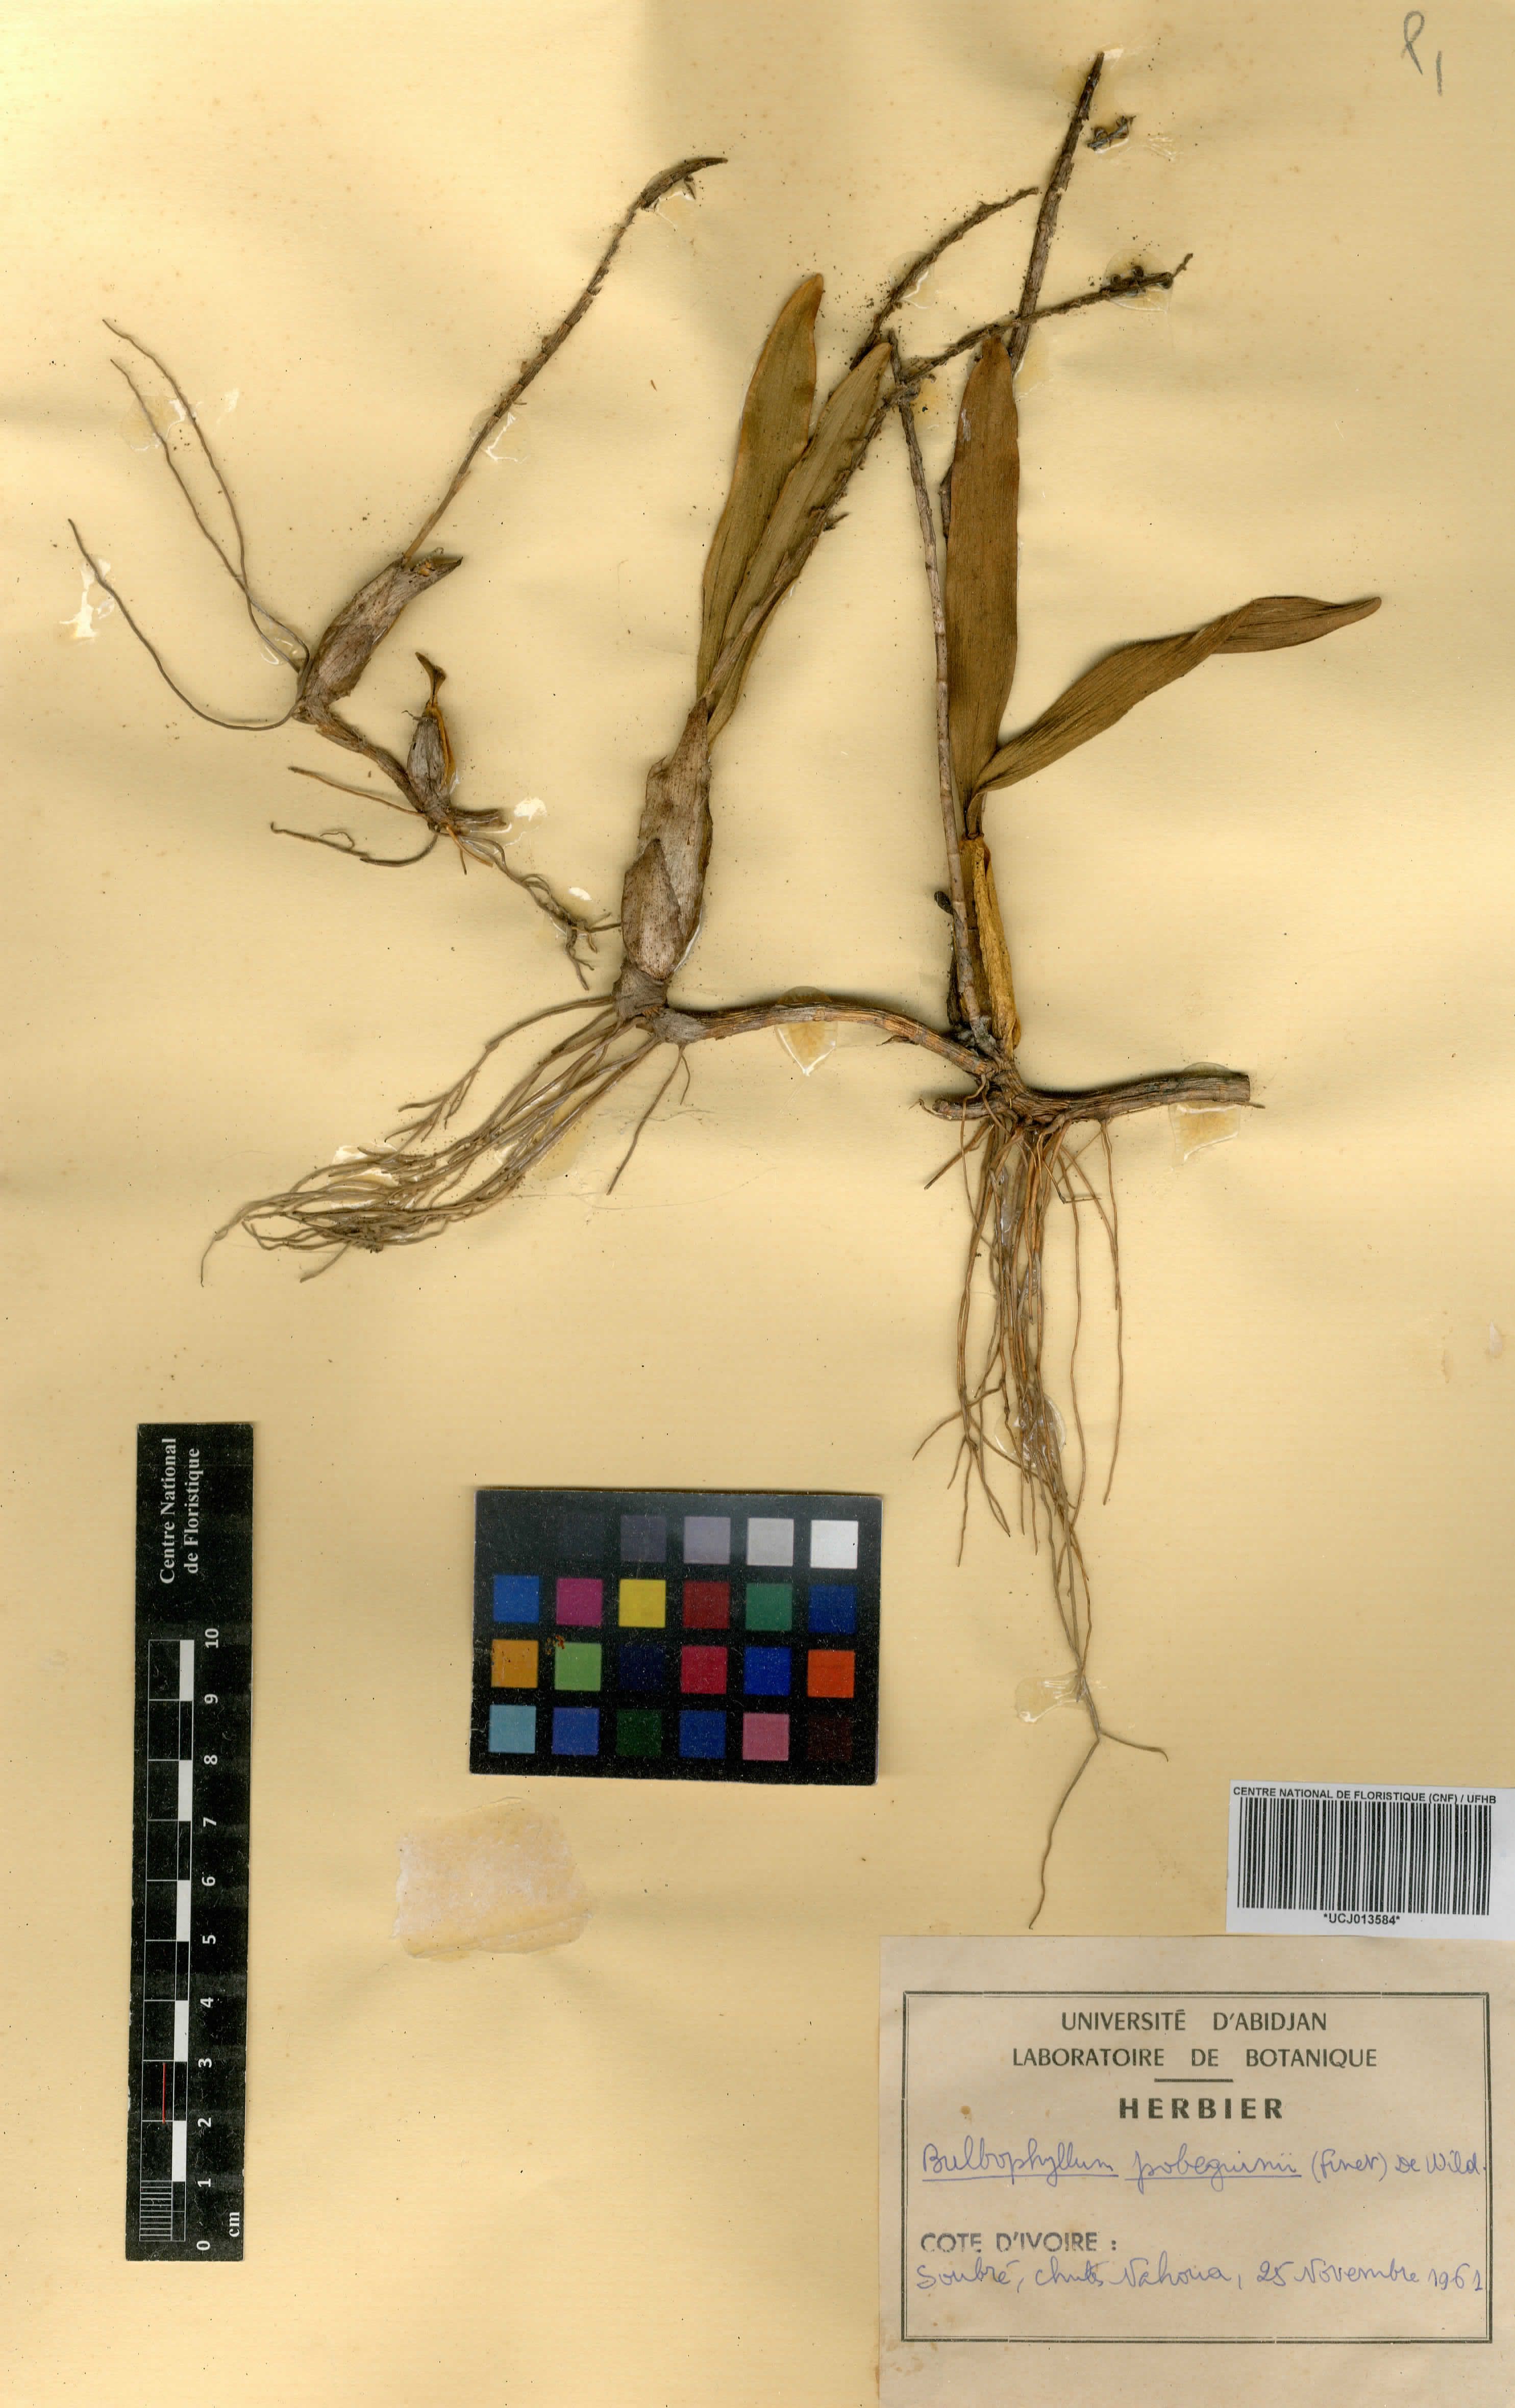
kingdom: Plantae
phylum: Tracheophyta
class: Liliopsida
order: Asparagales
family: Orchidaceae
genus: Bulbophyllum
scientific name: Bulbophyllum scaberulum
